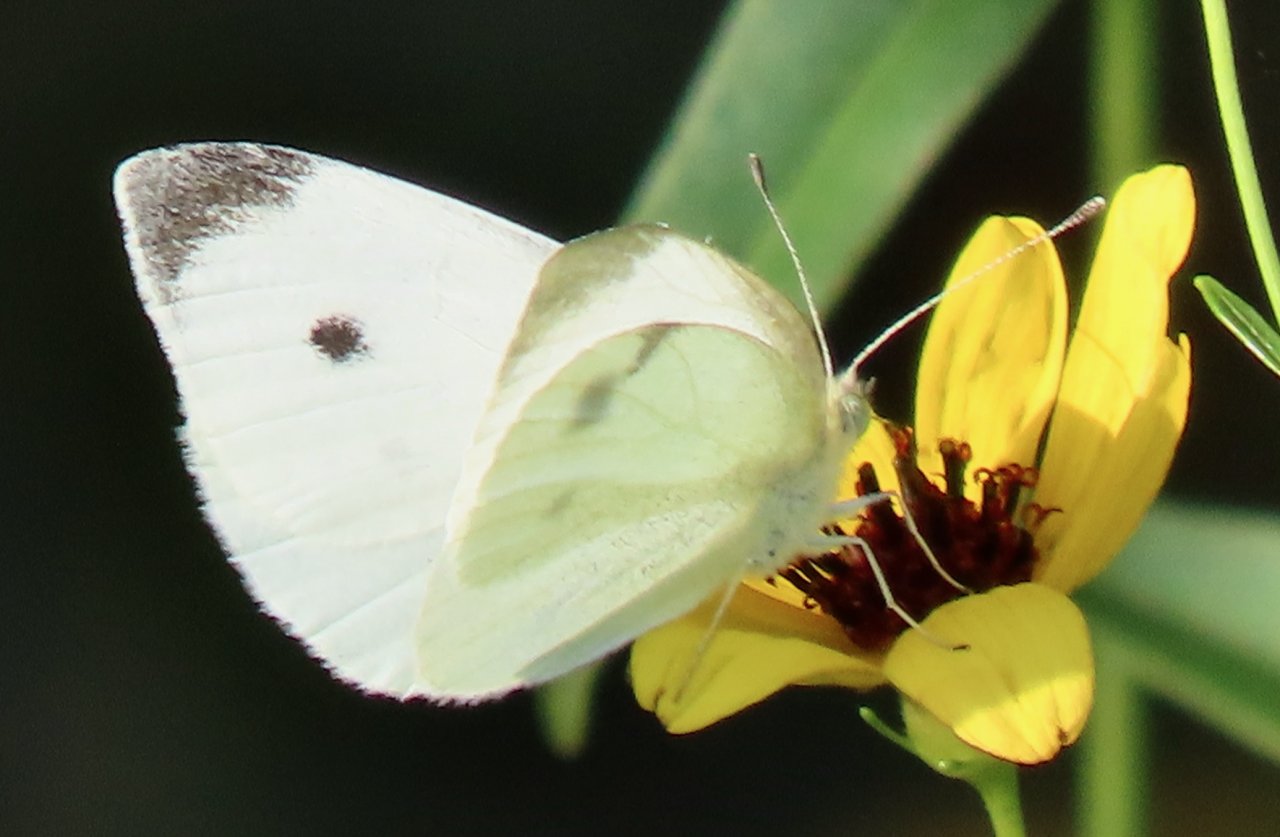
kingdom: Animalia
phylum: Arthropoda
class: Insecta
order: Lepidoptera
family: Pieridae
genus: Pieris
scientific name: Pieris rapae
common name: Cabbage White
